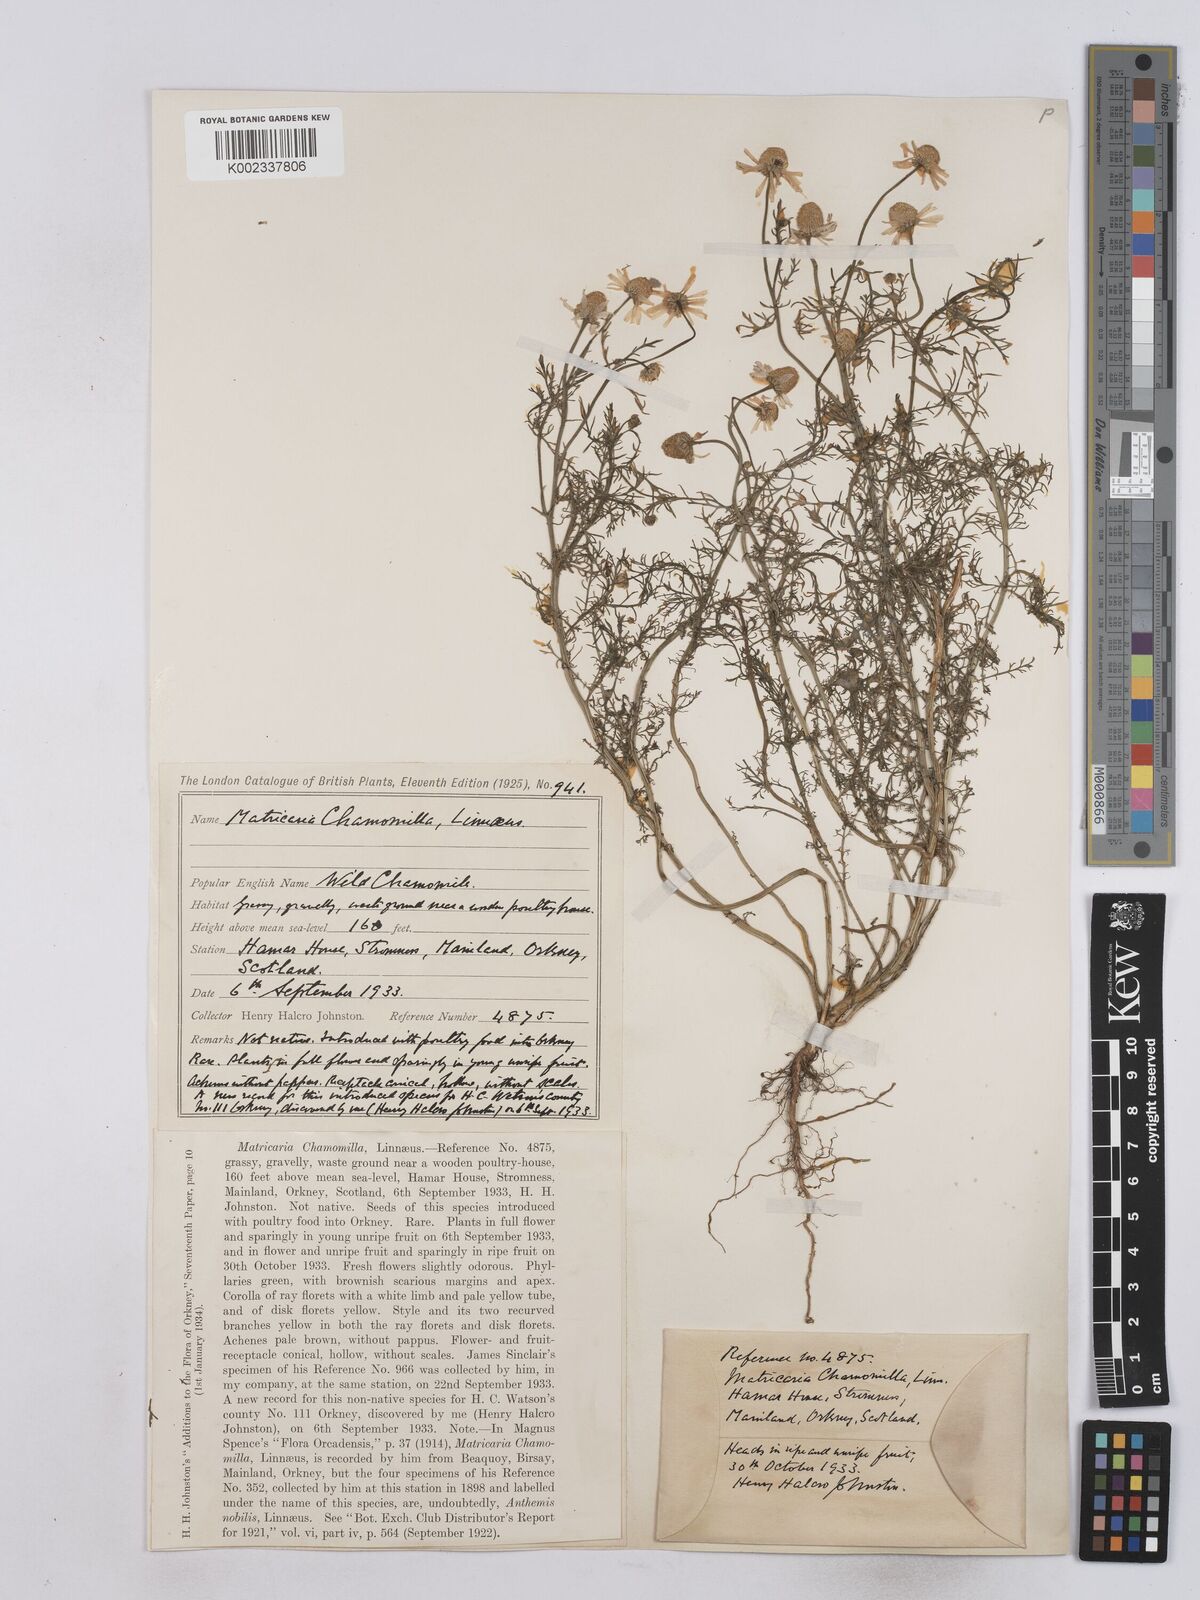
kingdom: Plantae
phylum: Tracheophyta
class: Magnoliopsida
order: Asterales
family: Asteraceae
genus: Matricaria
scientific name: Matricaria chamomilla
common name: Scented mayweed
